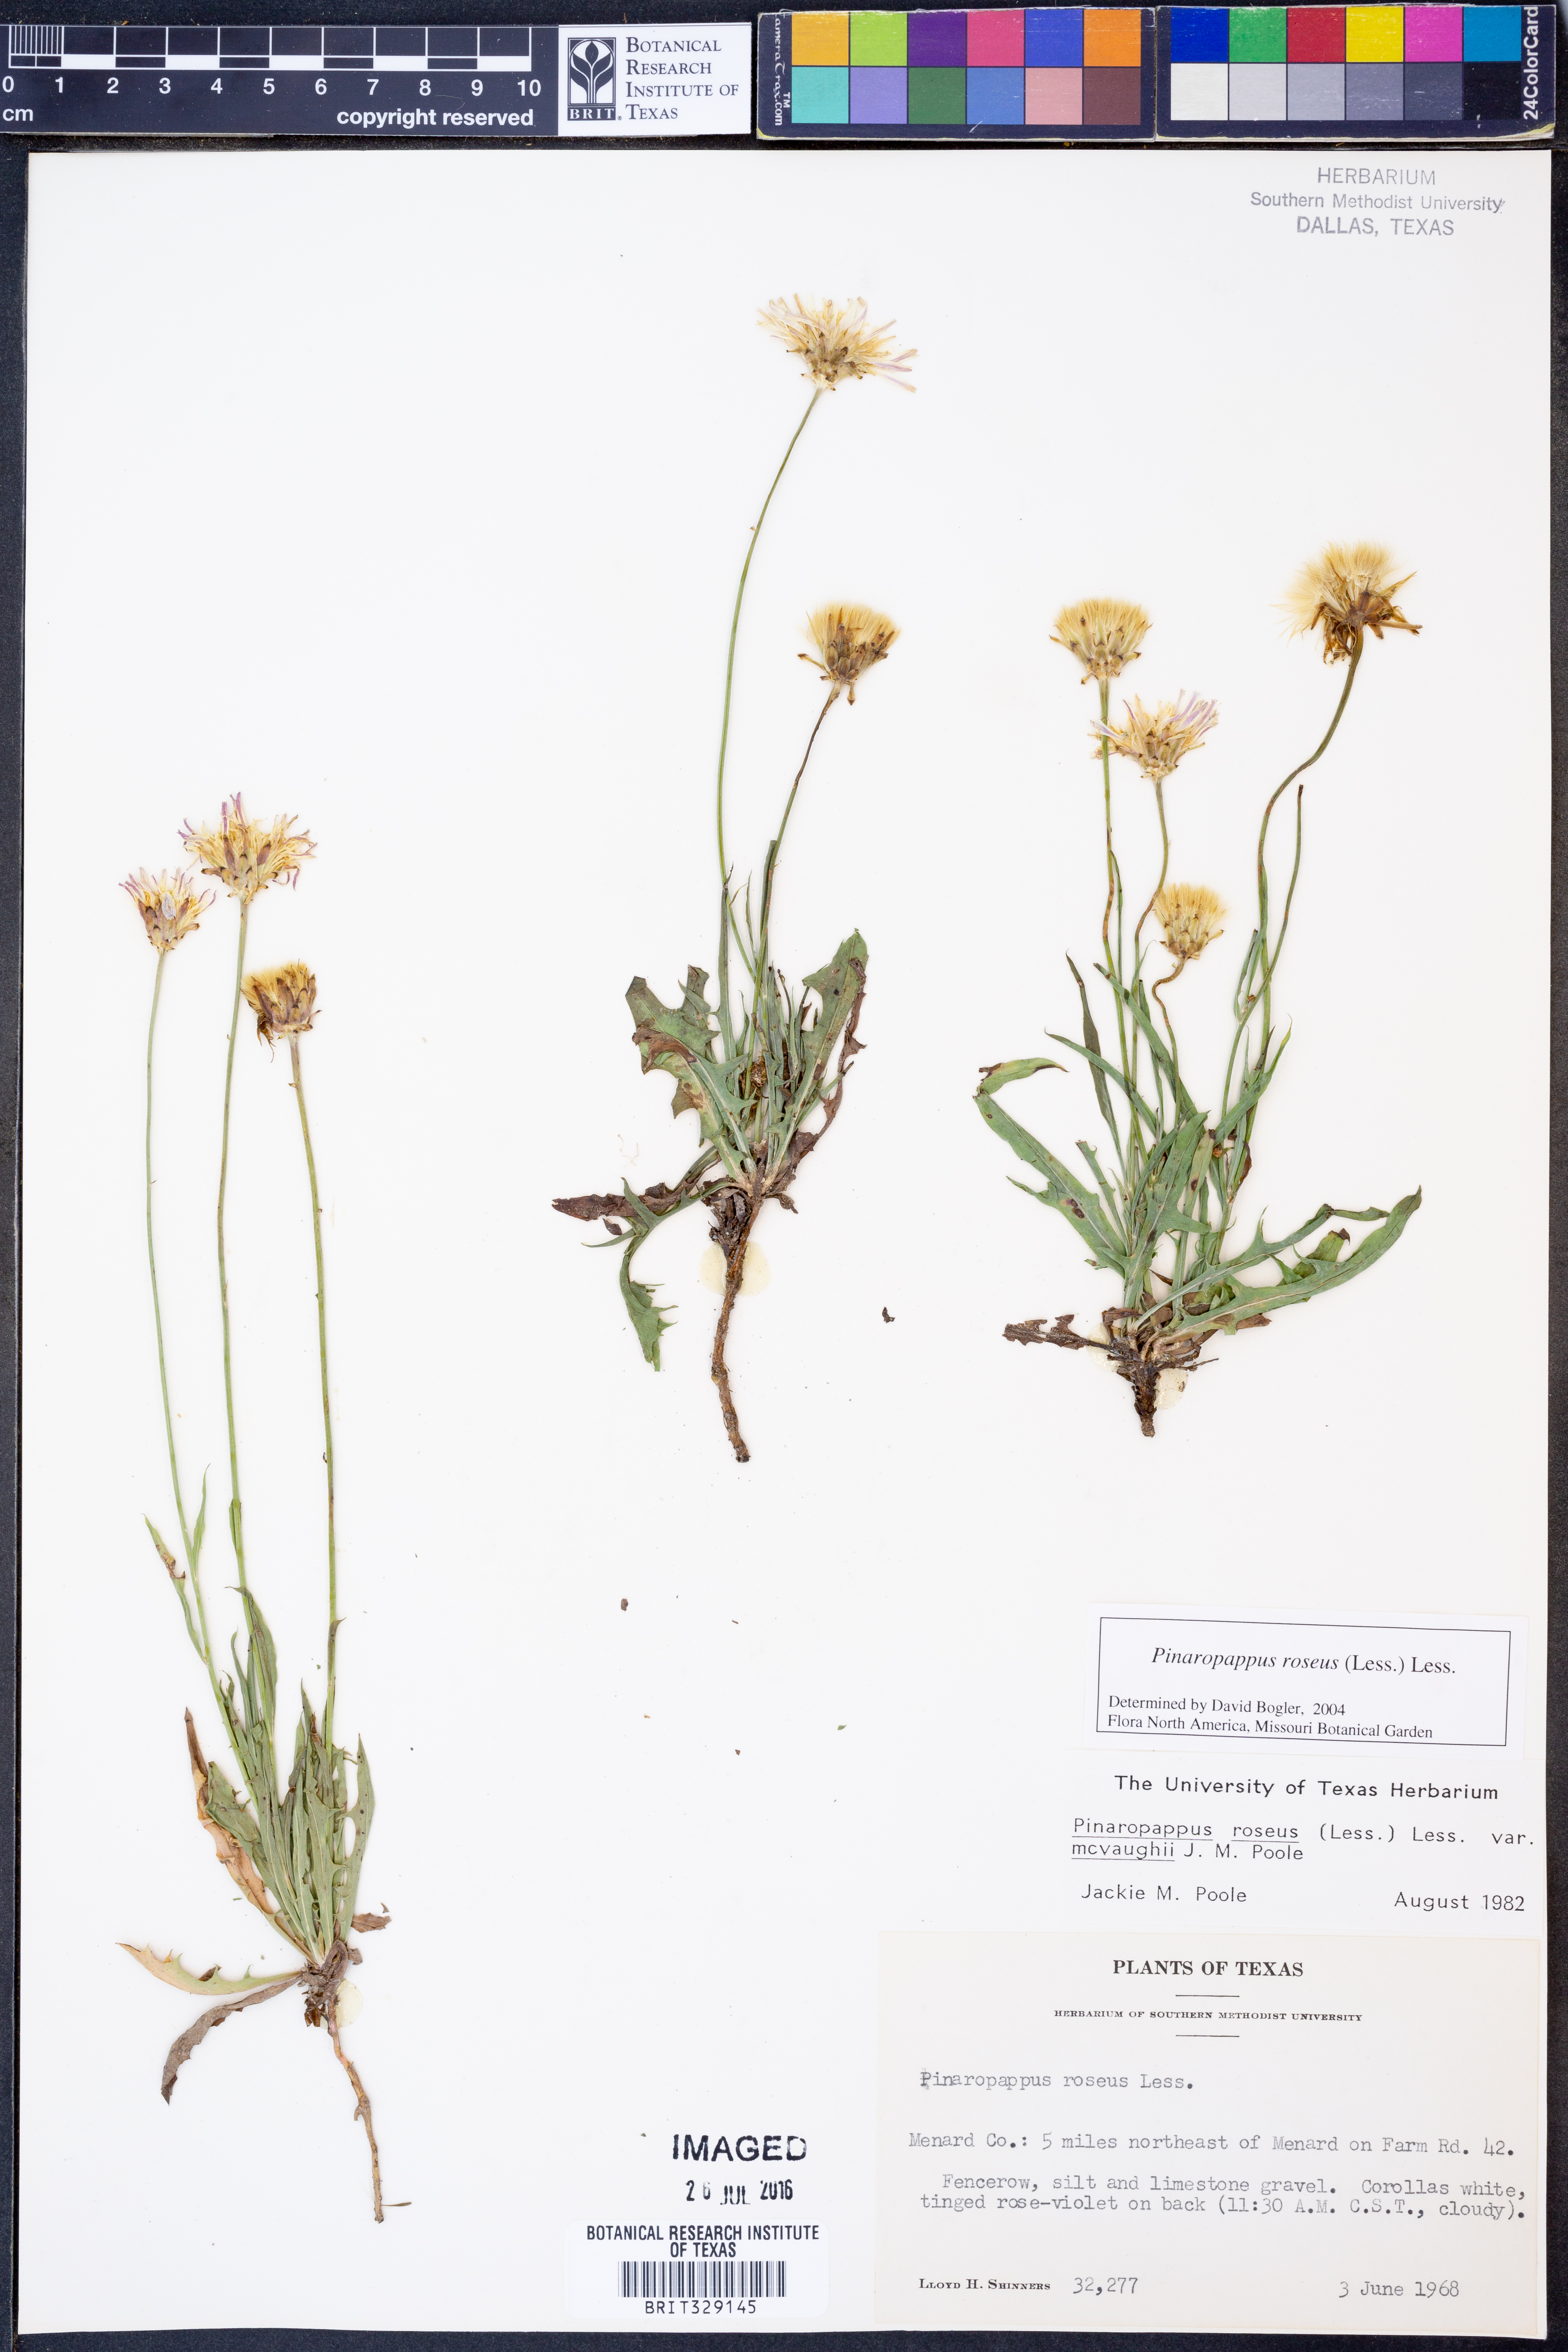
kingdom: Plantae
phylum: Tracheophyta
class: Magnoliopsida
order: Asterales
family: Asteraceae
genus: Pinaropappus
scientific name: Pinaropappus roseus
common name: Rock-lettuce
